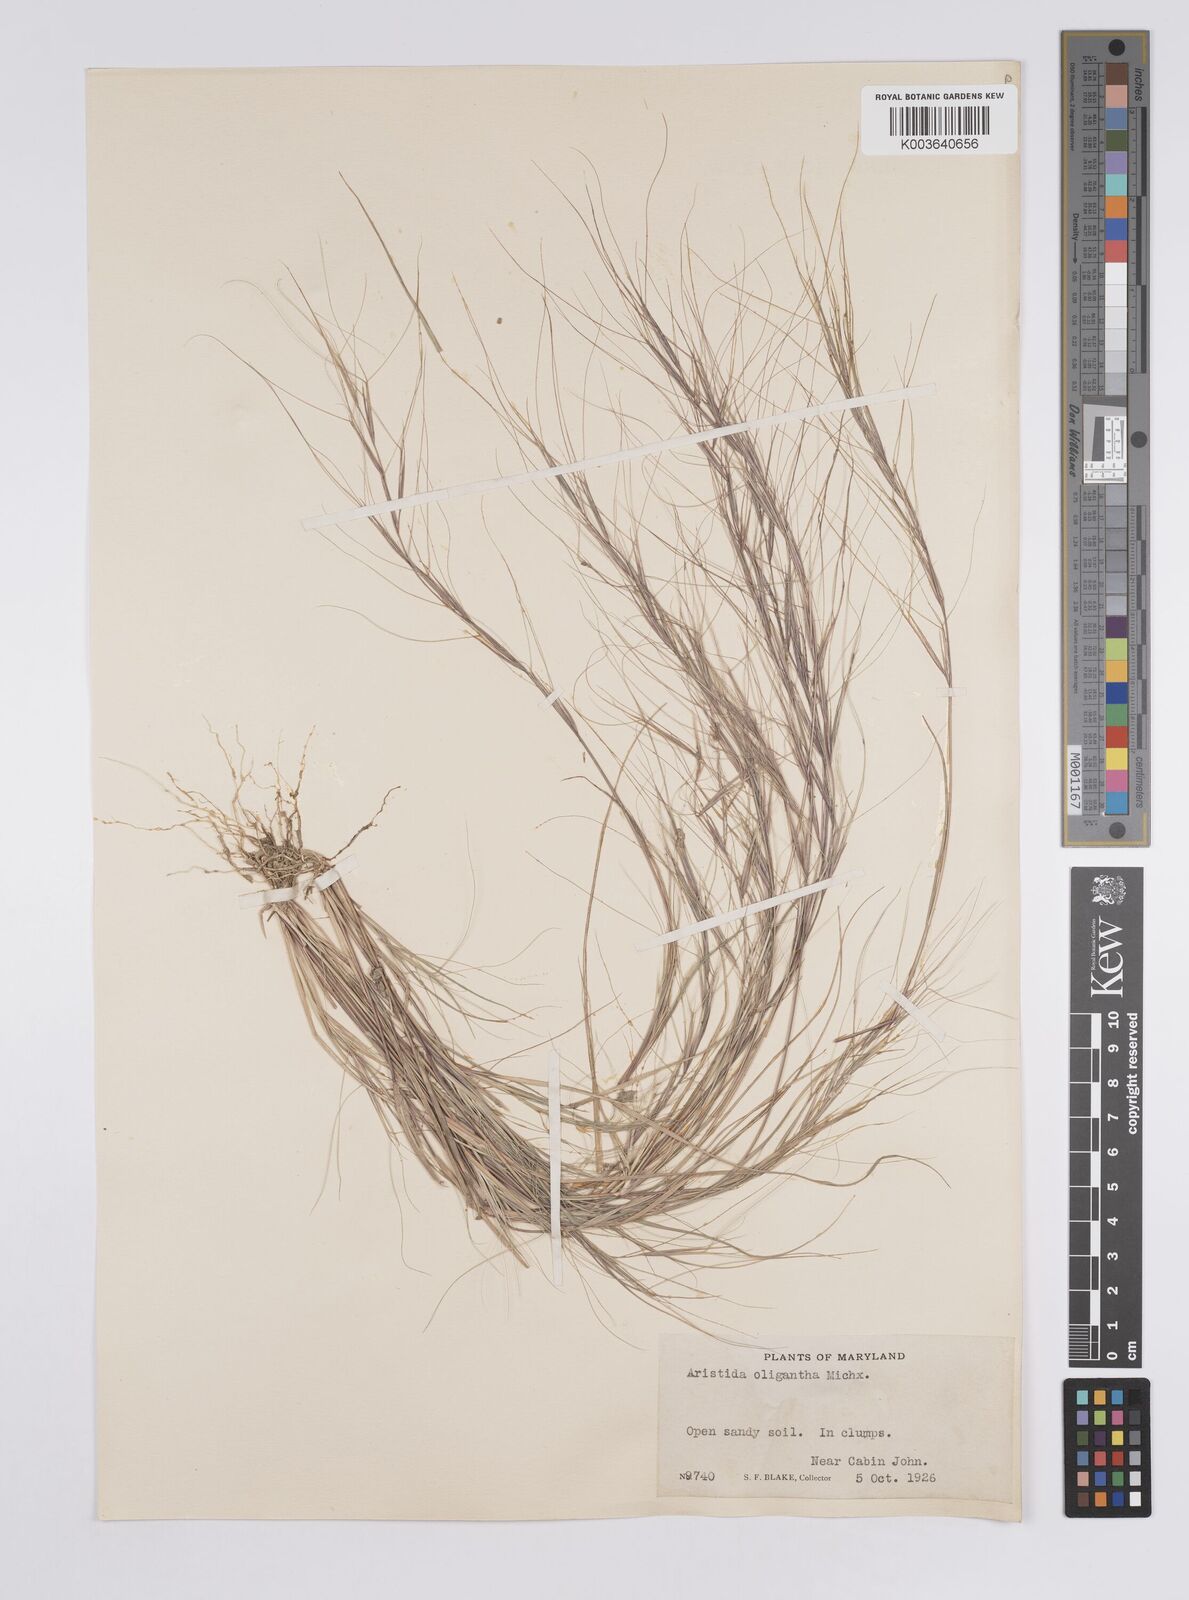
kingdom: Plantae
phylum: Tracheophyta
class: Liliopsida
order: Poales
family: Poaceae
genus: Aristida
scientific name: Aristida oligantha
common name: Few-flowered aristida
